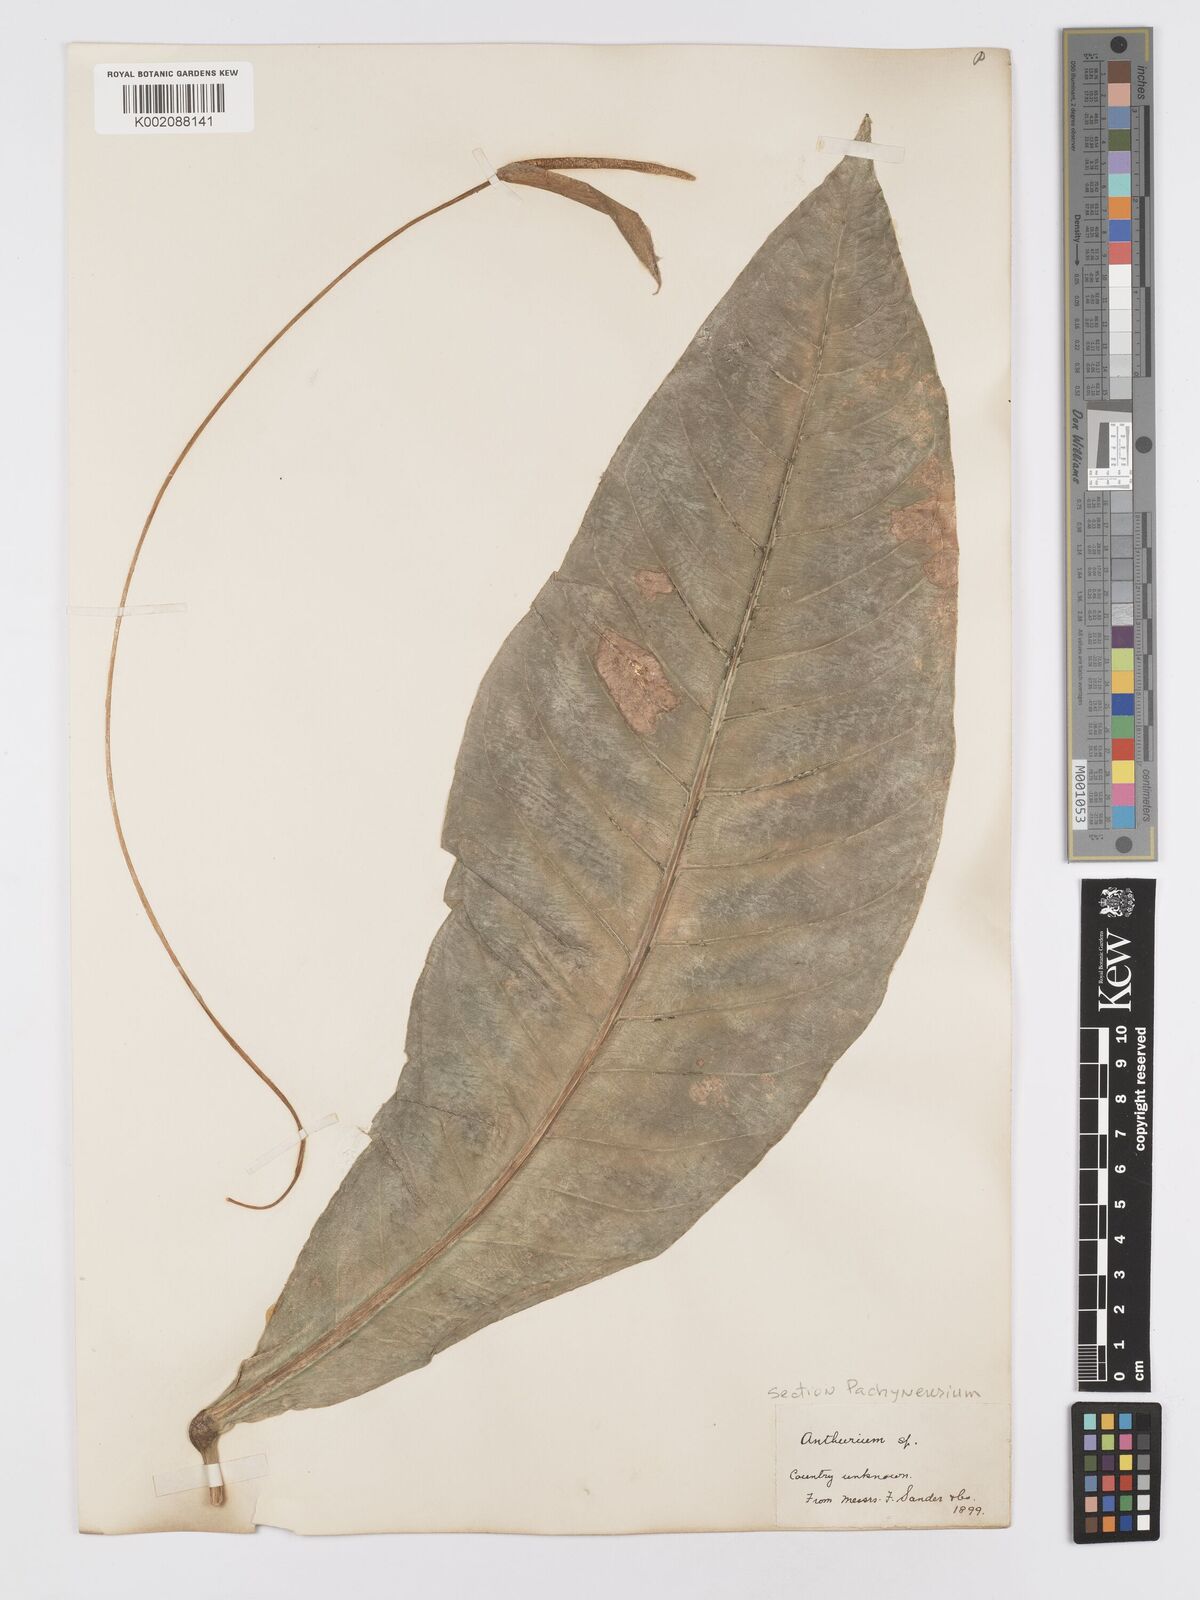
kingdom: Plantae
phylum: Tracheophyta
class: Liliopsida
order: Alismatales
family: Araceae
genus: Anthurium
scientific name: Anthurium
